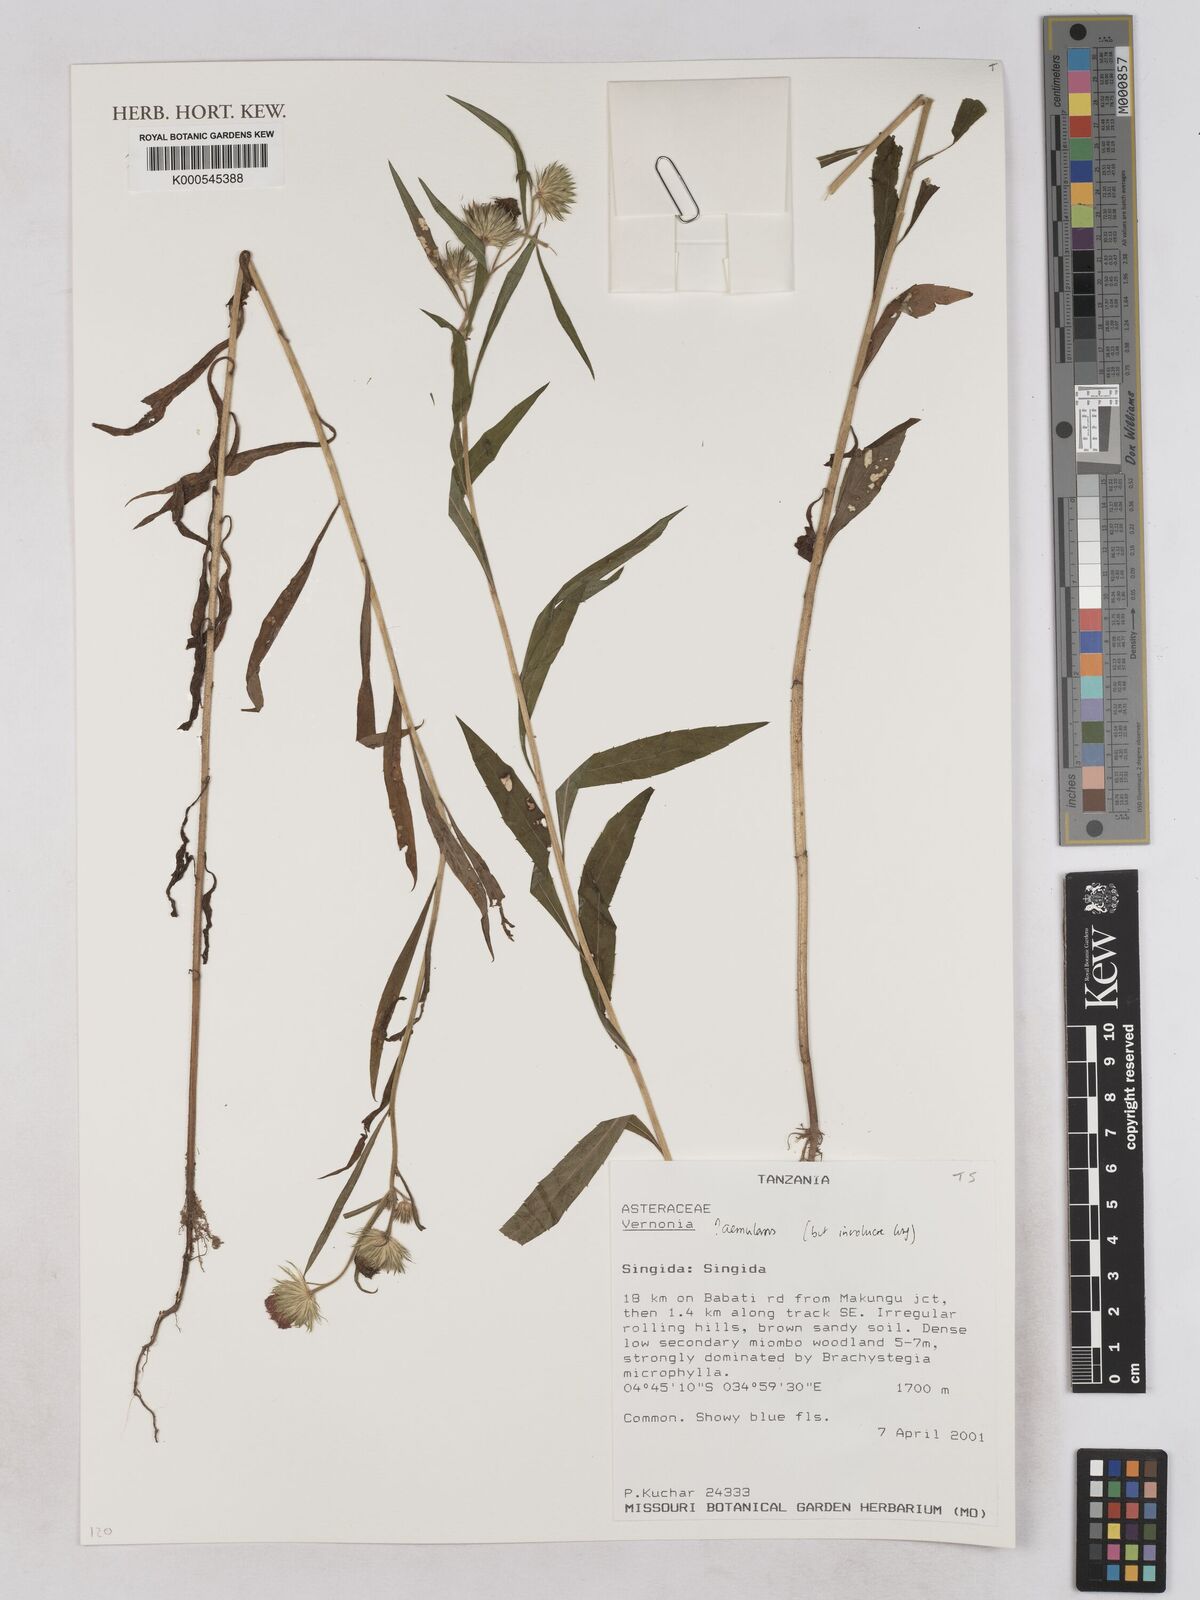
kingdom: Plantae
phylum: Tracheophyta
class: Magnoliopsida
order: Asterales
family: Asteraceae
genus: Vernoniastrum
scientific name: Vernoniastrum aemulans
